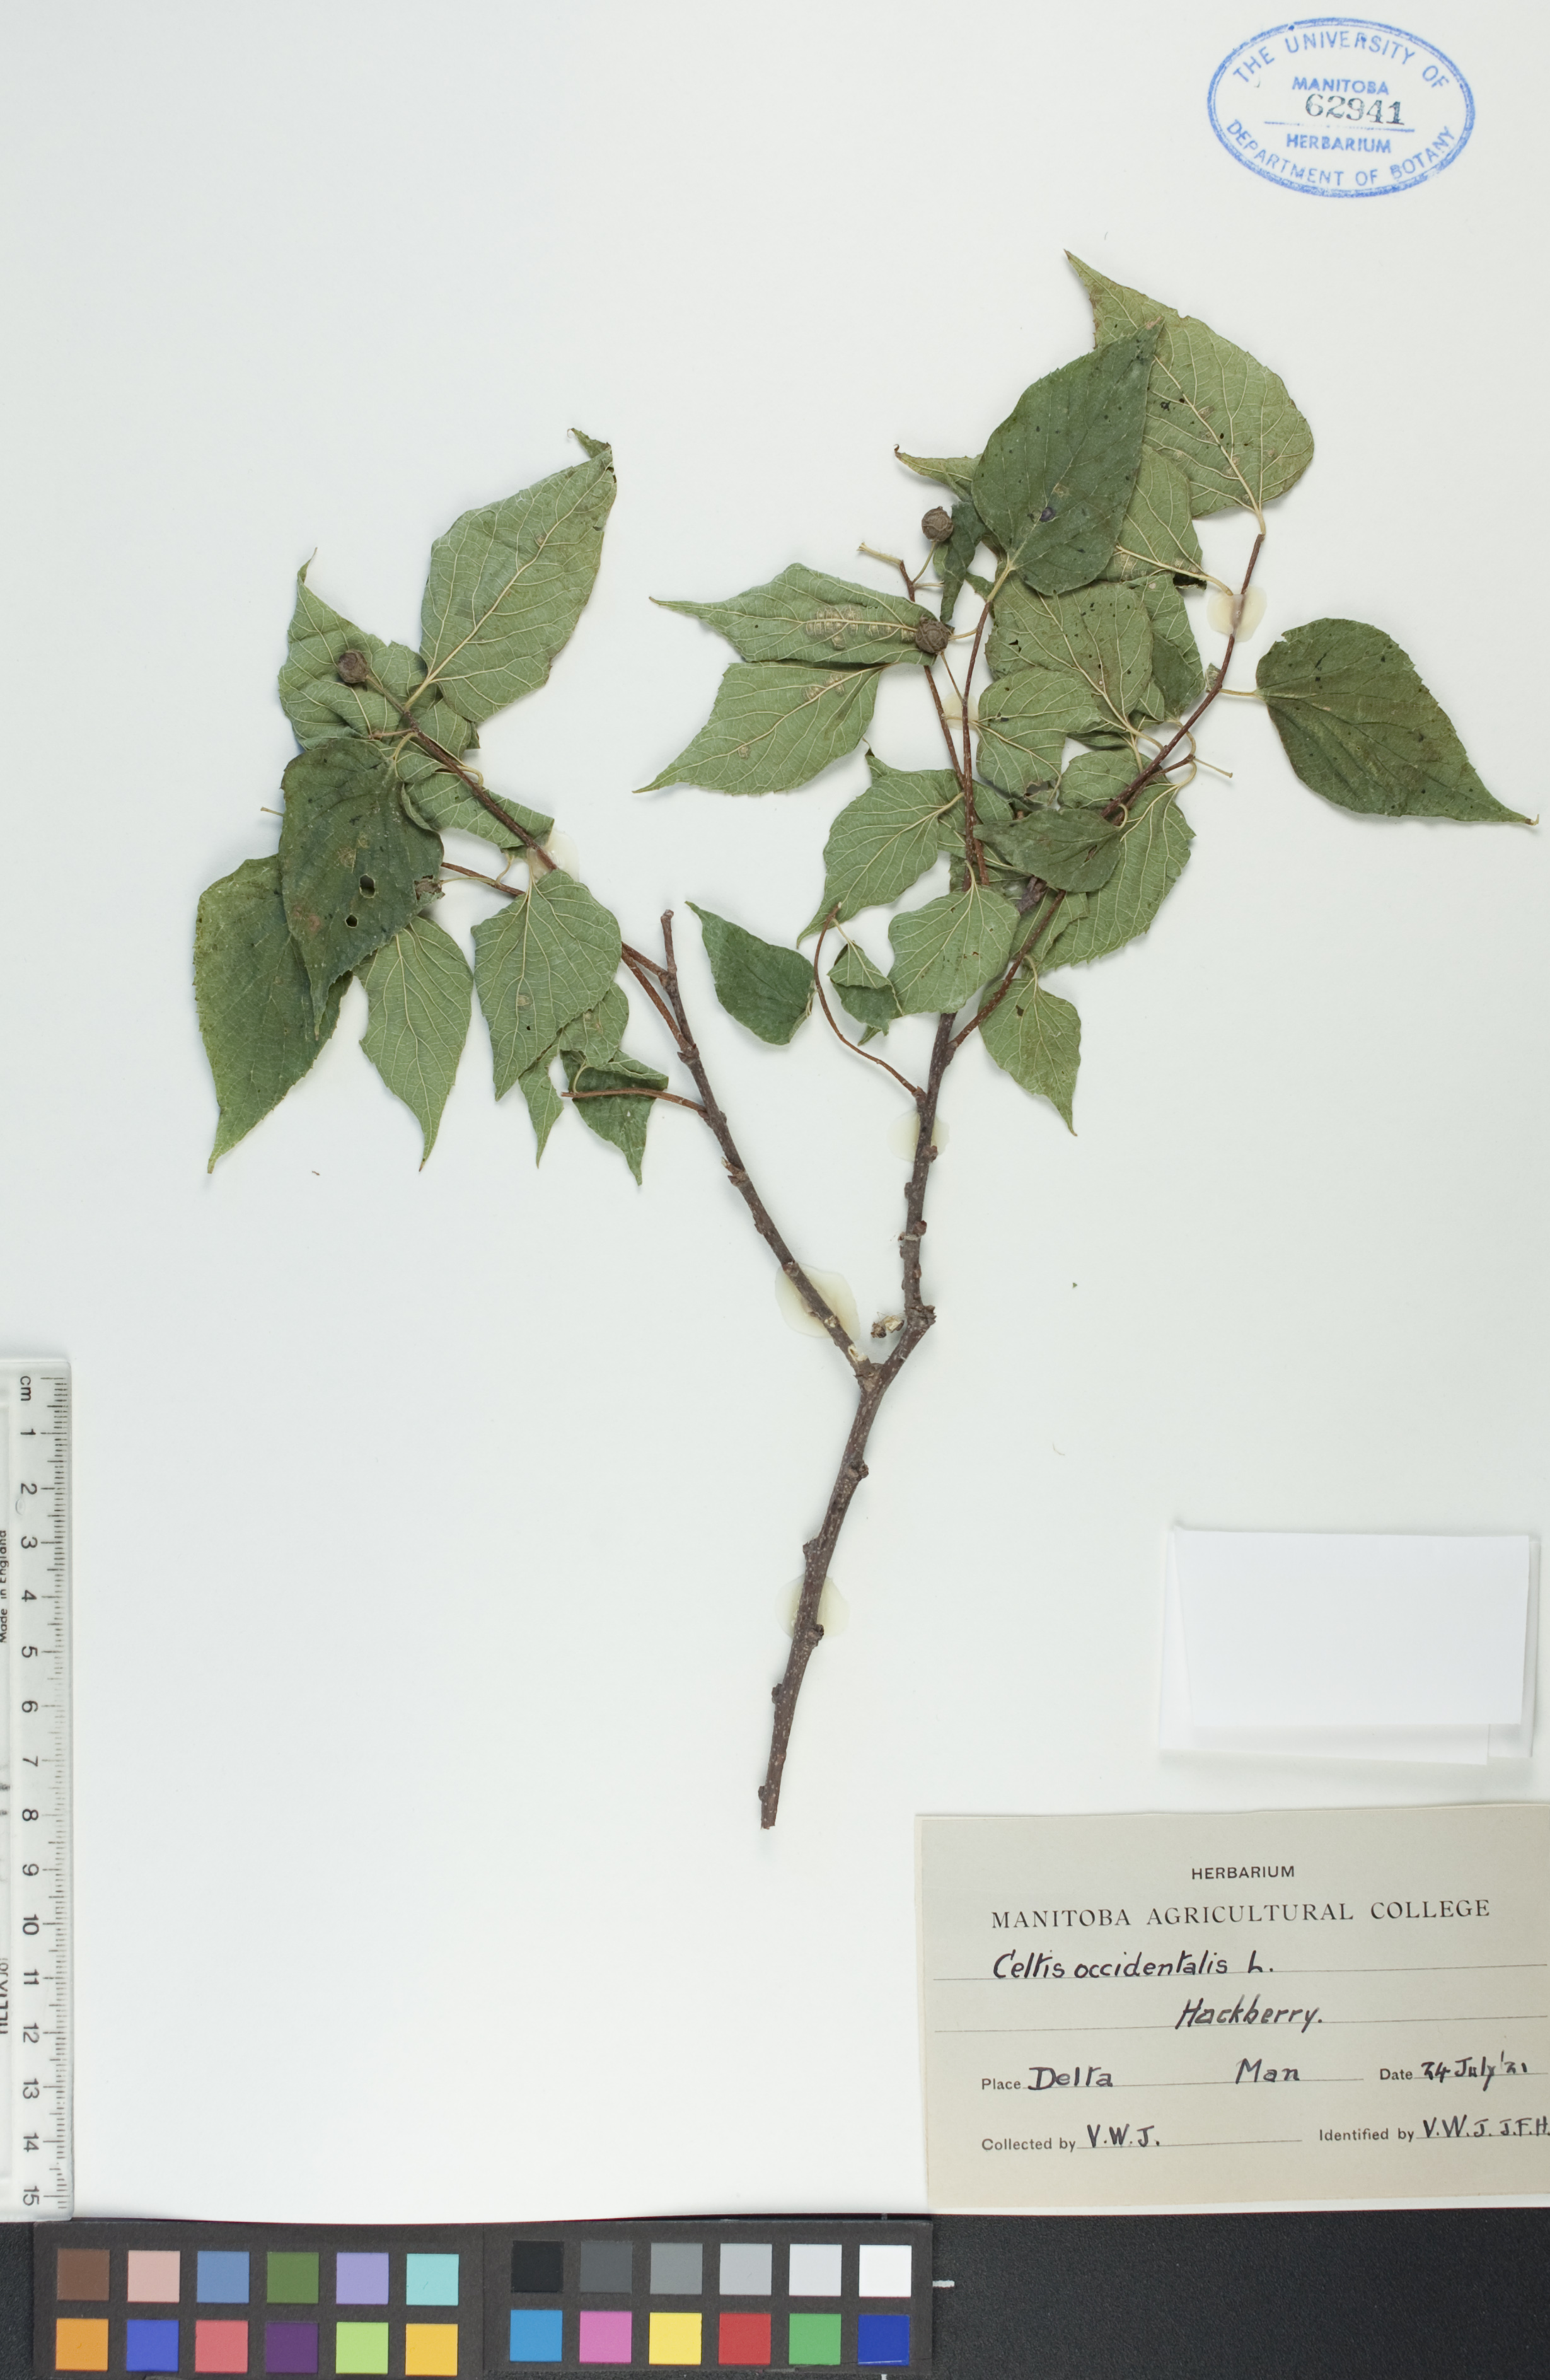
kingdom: Plantae
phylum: Tracheophyta
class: Magnoliopsida
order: Rosales
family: Cannabaceae
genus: Celtis
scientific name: Celtis occidentalis
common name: Common hackberry
